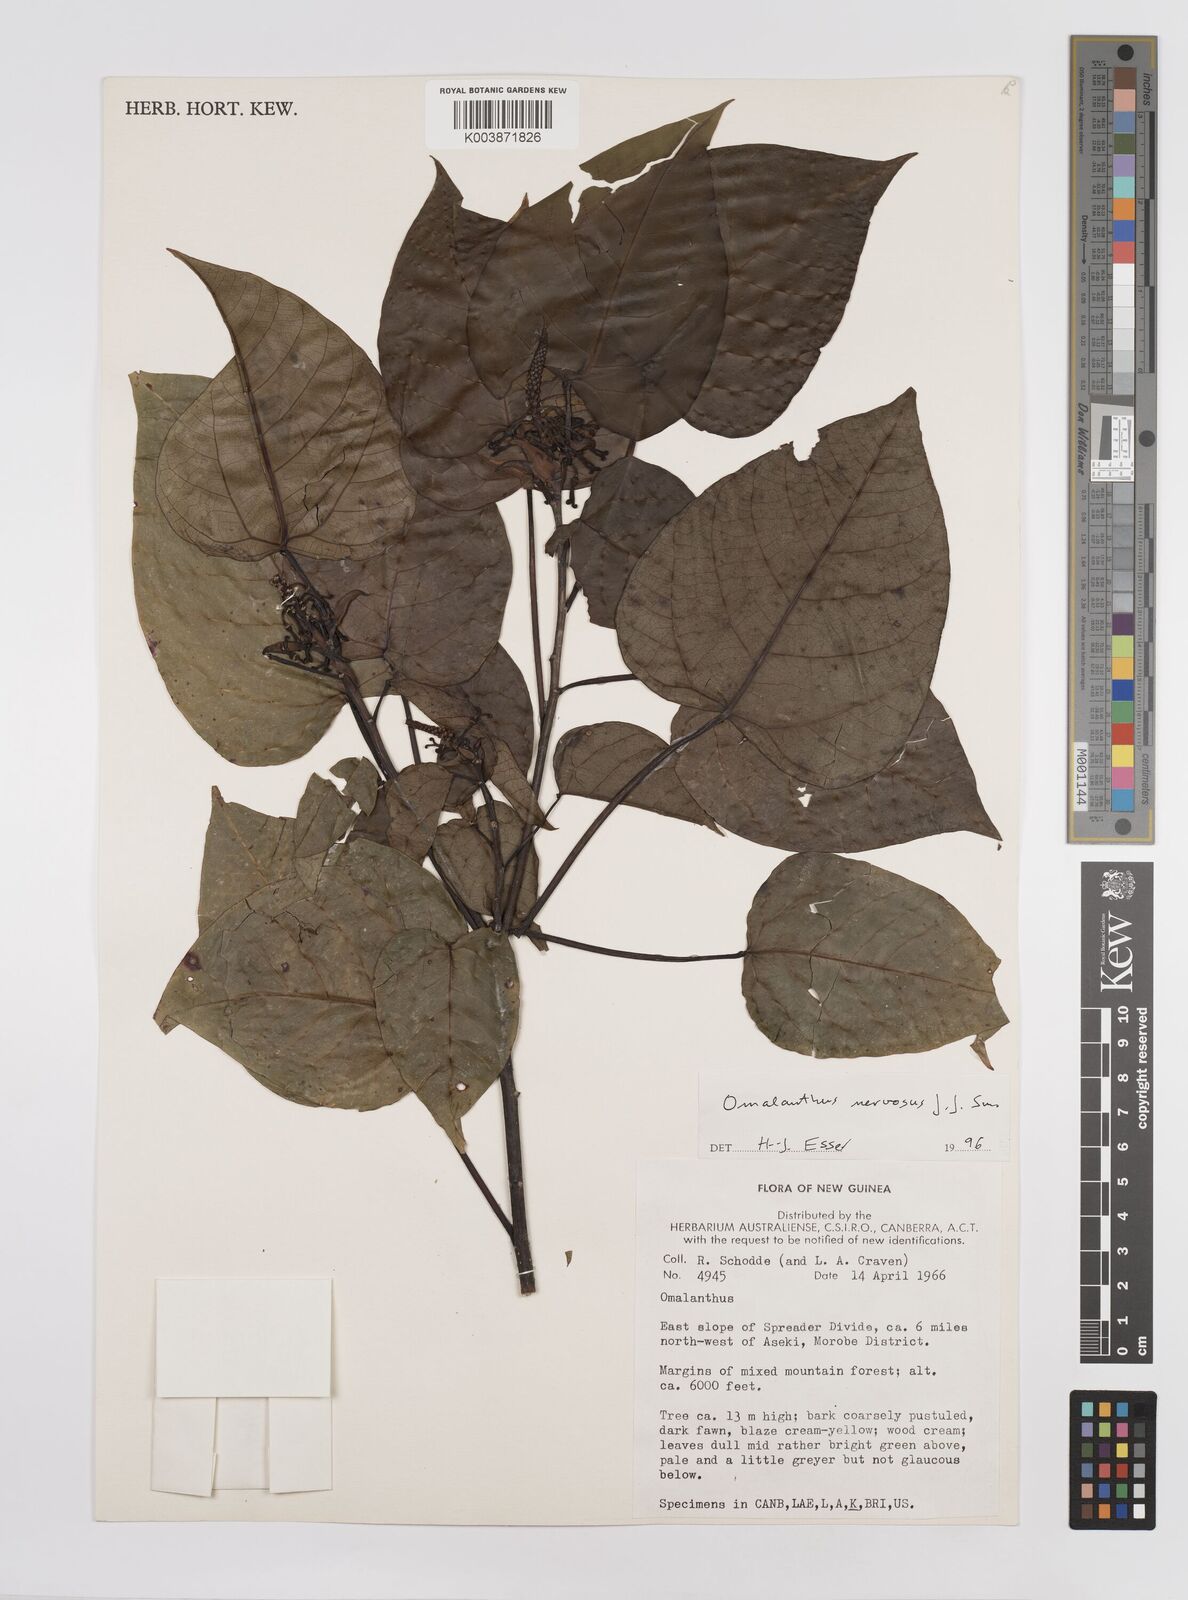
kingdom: Plantae
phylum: Tracheophyta
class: Magnoliopsida
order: Malpighiales
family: Euphorbiaceae
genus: Homalanthus
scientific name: Homalanthus nervosus
